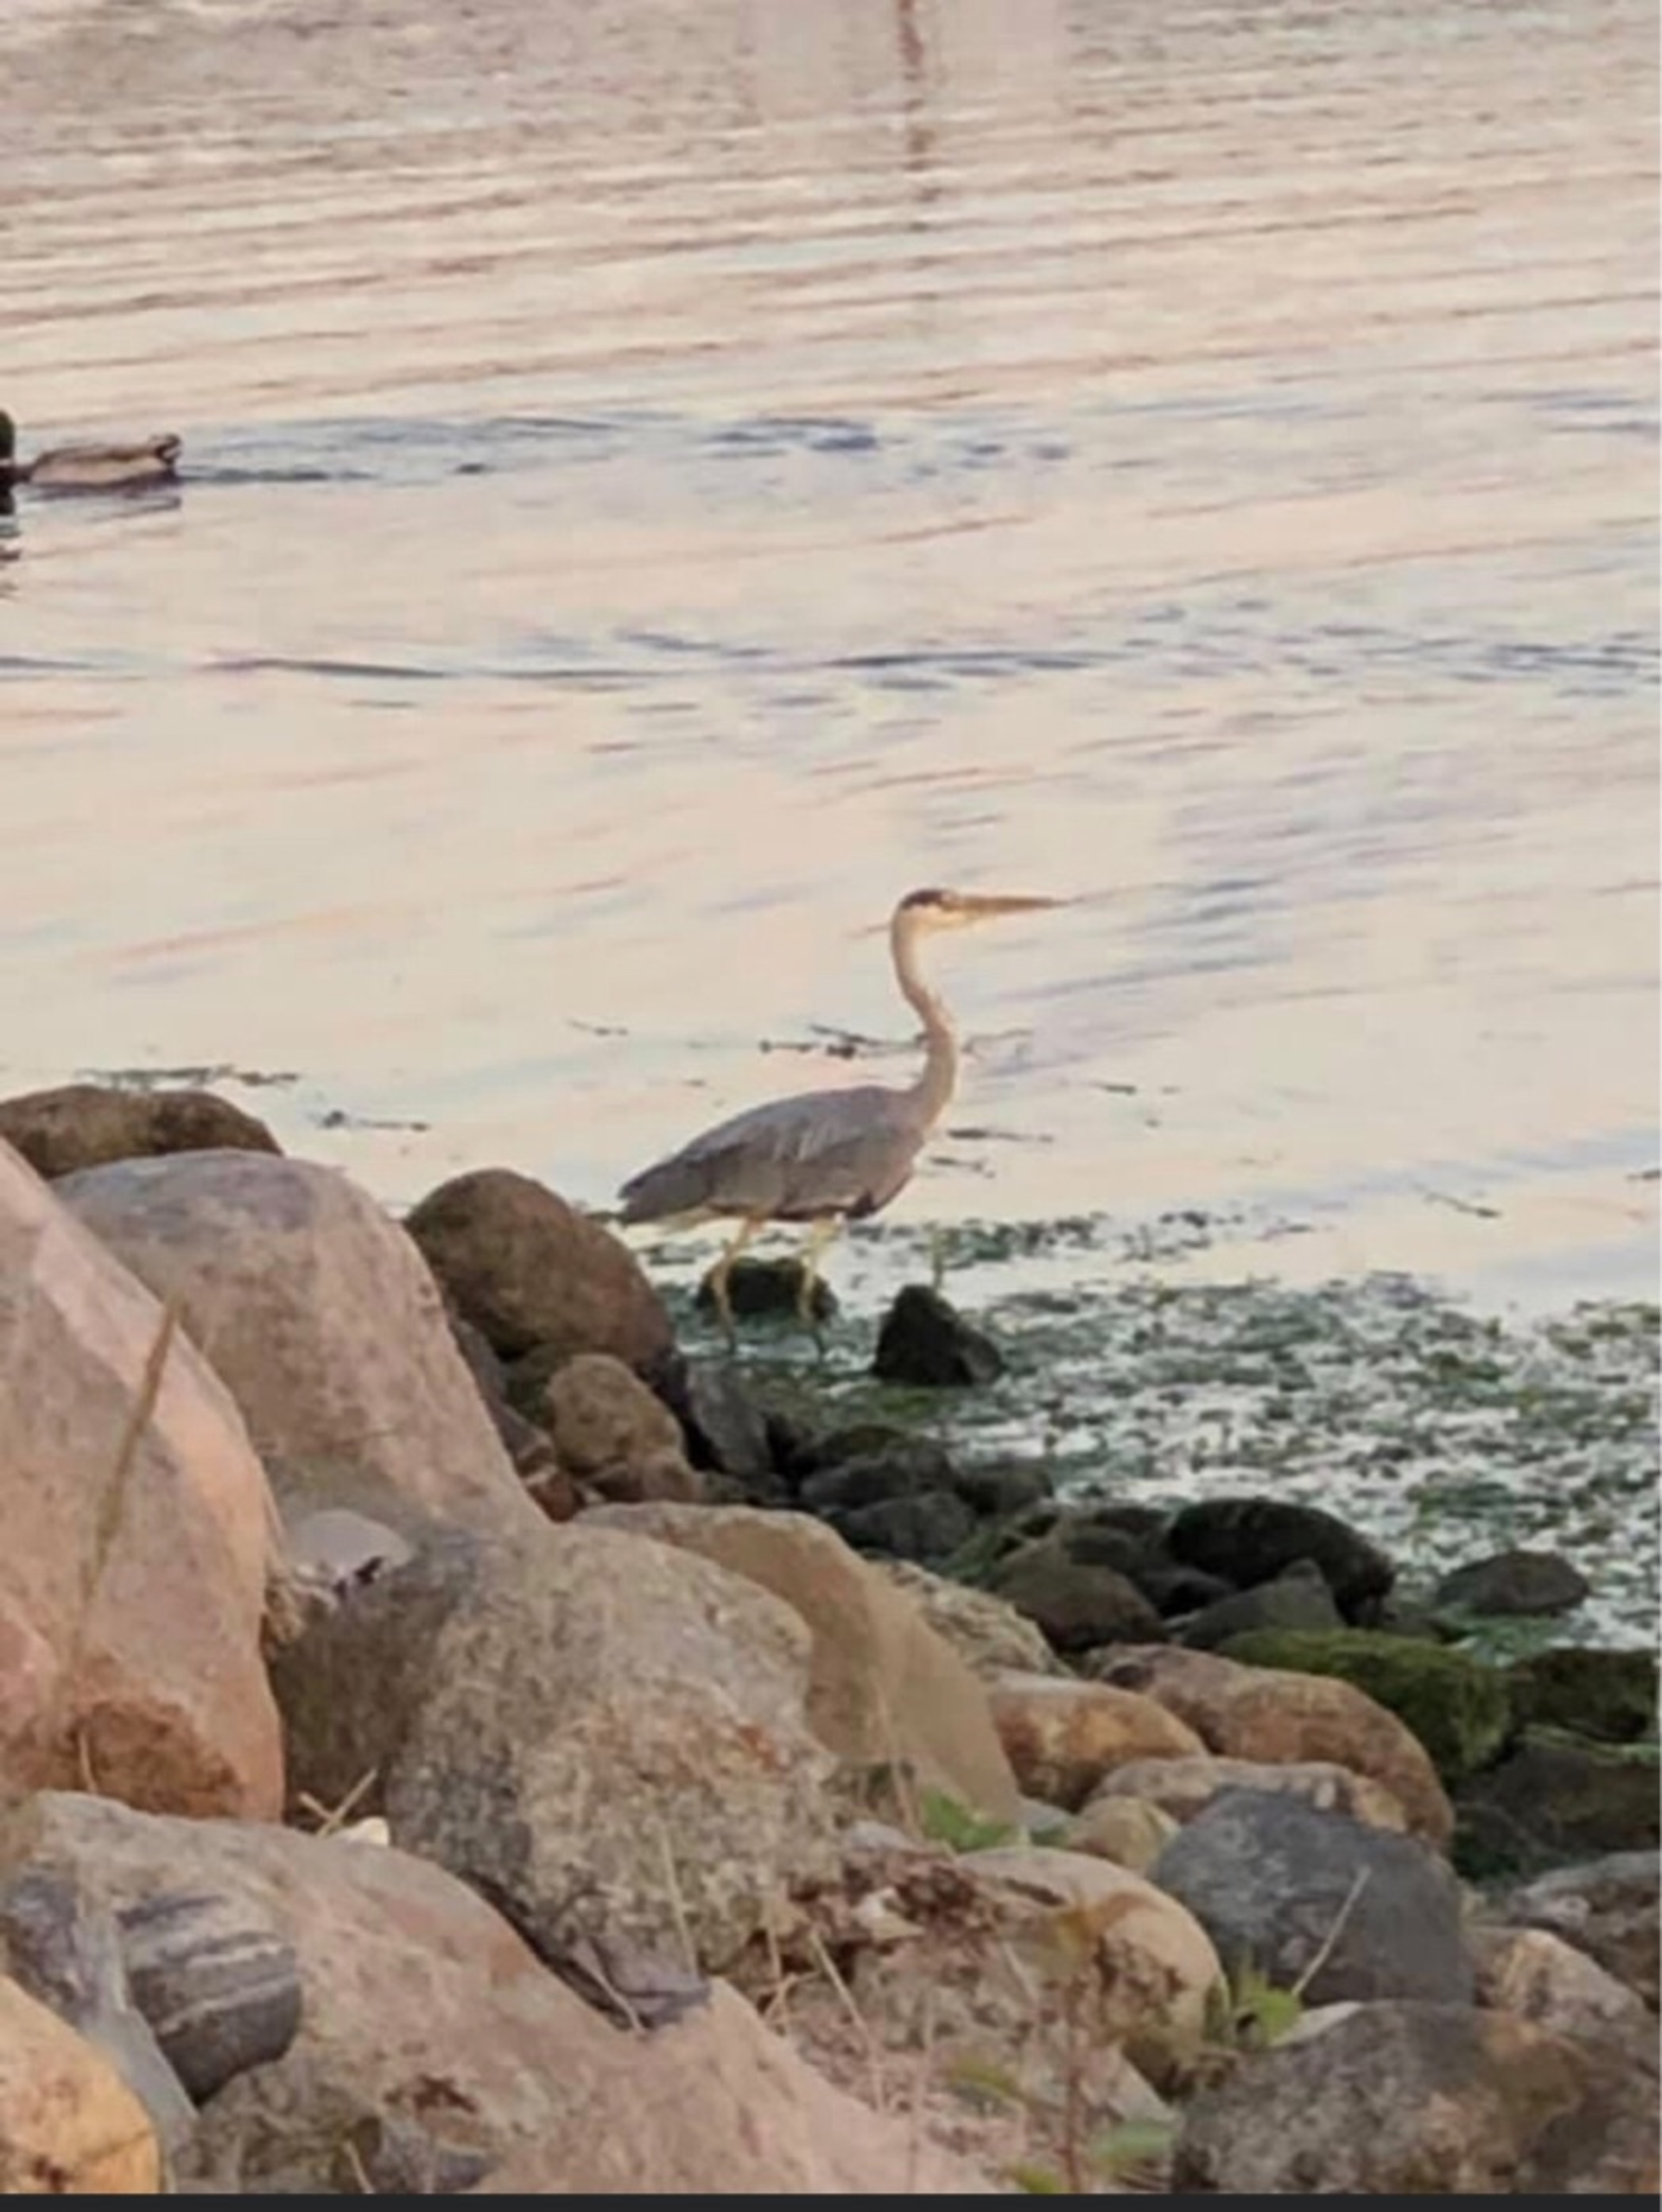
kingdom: Animalia
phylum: Chordata
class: Aves
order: Pelecaniformes
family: Ardeidae
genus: Ardea
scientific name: Ardea cinerea
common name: Fiskehejre
